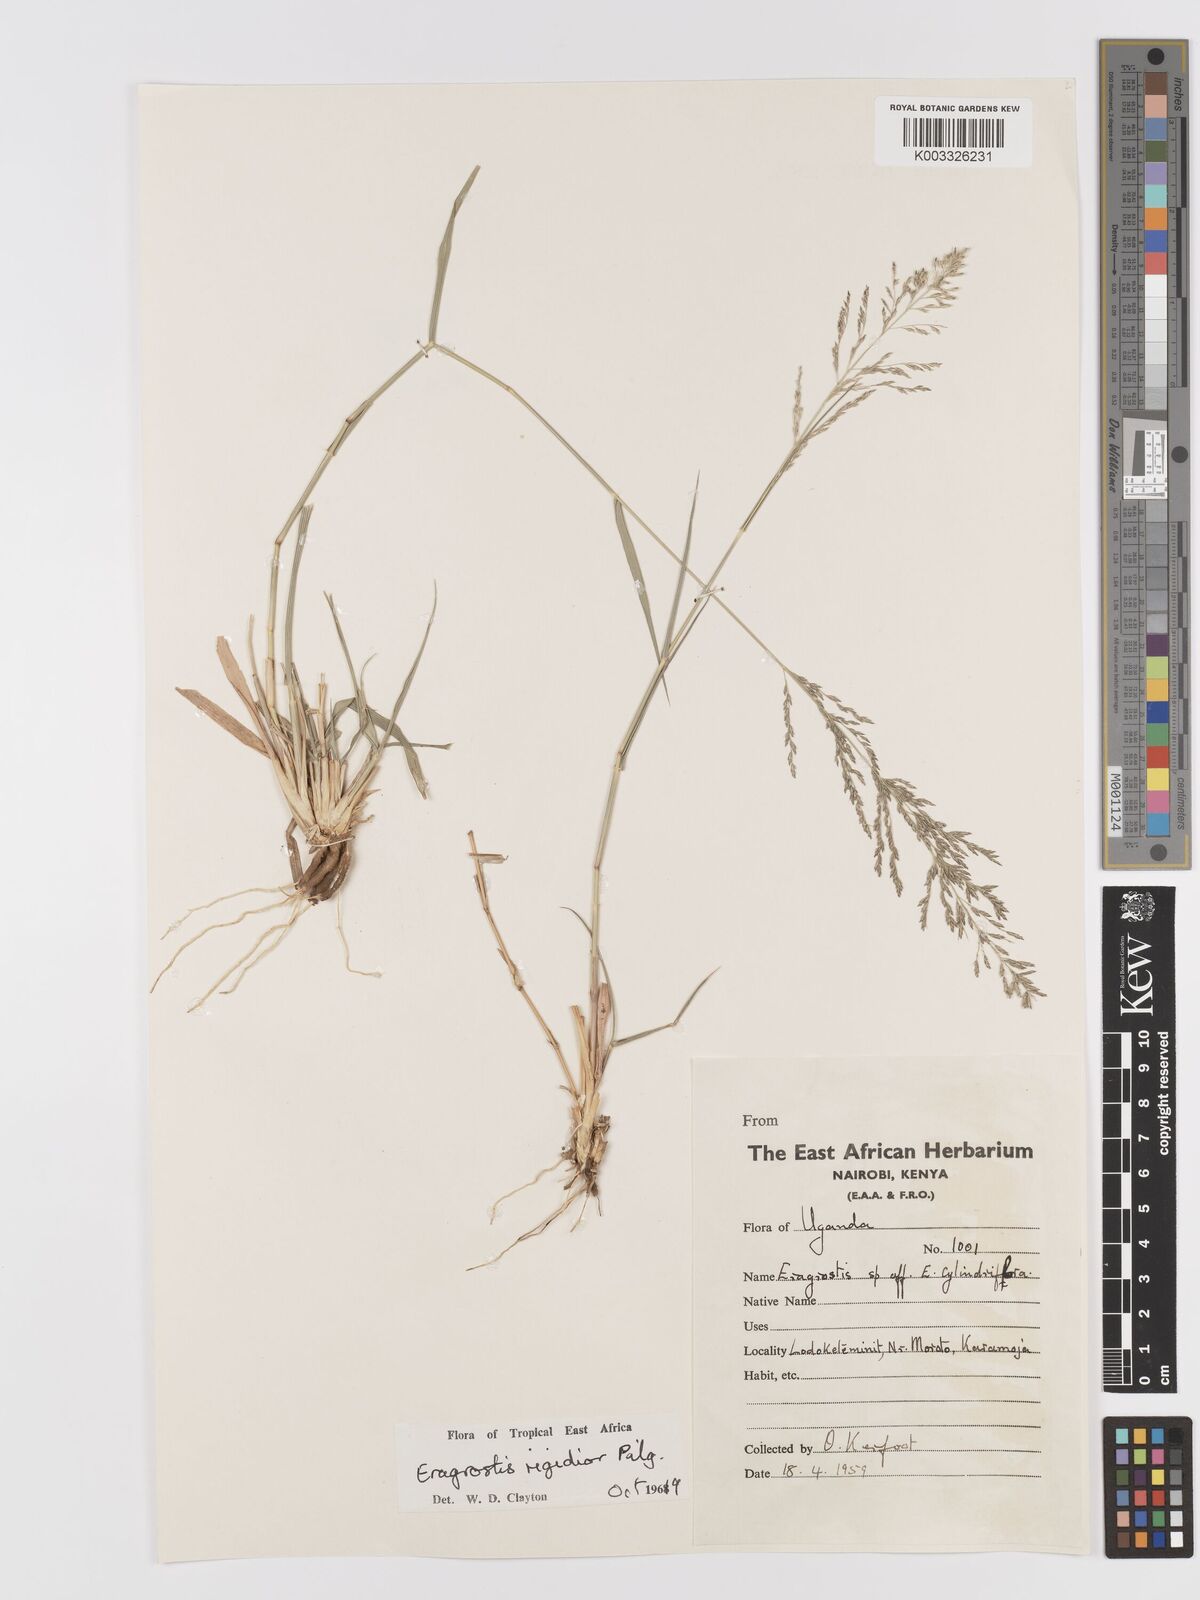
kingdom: Plantae
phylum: Tracheophyta
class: Liliopsida
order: Poales
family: Poaceae
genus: Eragrostis
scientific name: Eragrostis cylindriflora
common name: Cylinderflower lovegrass
